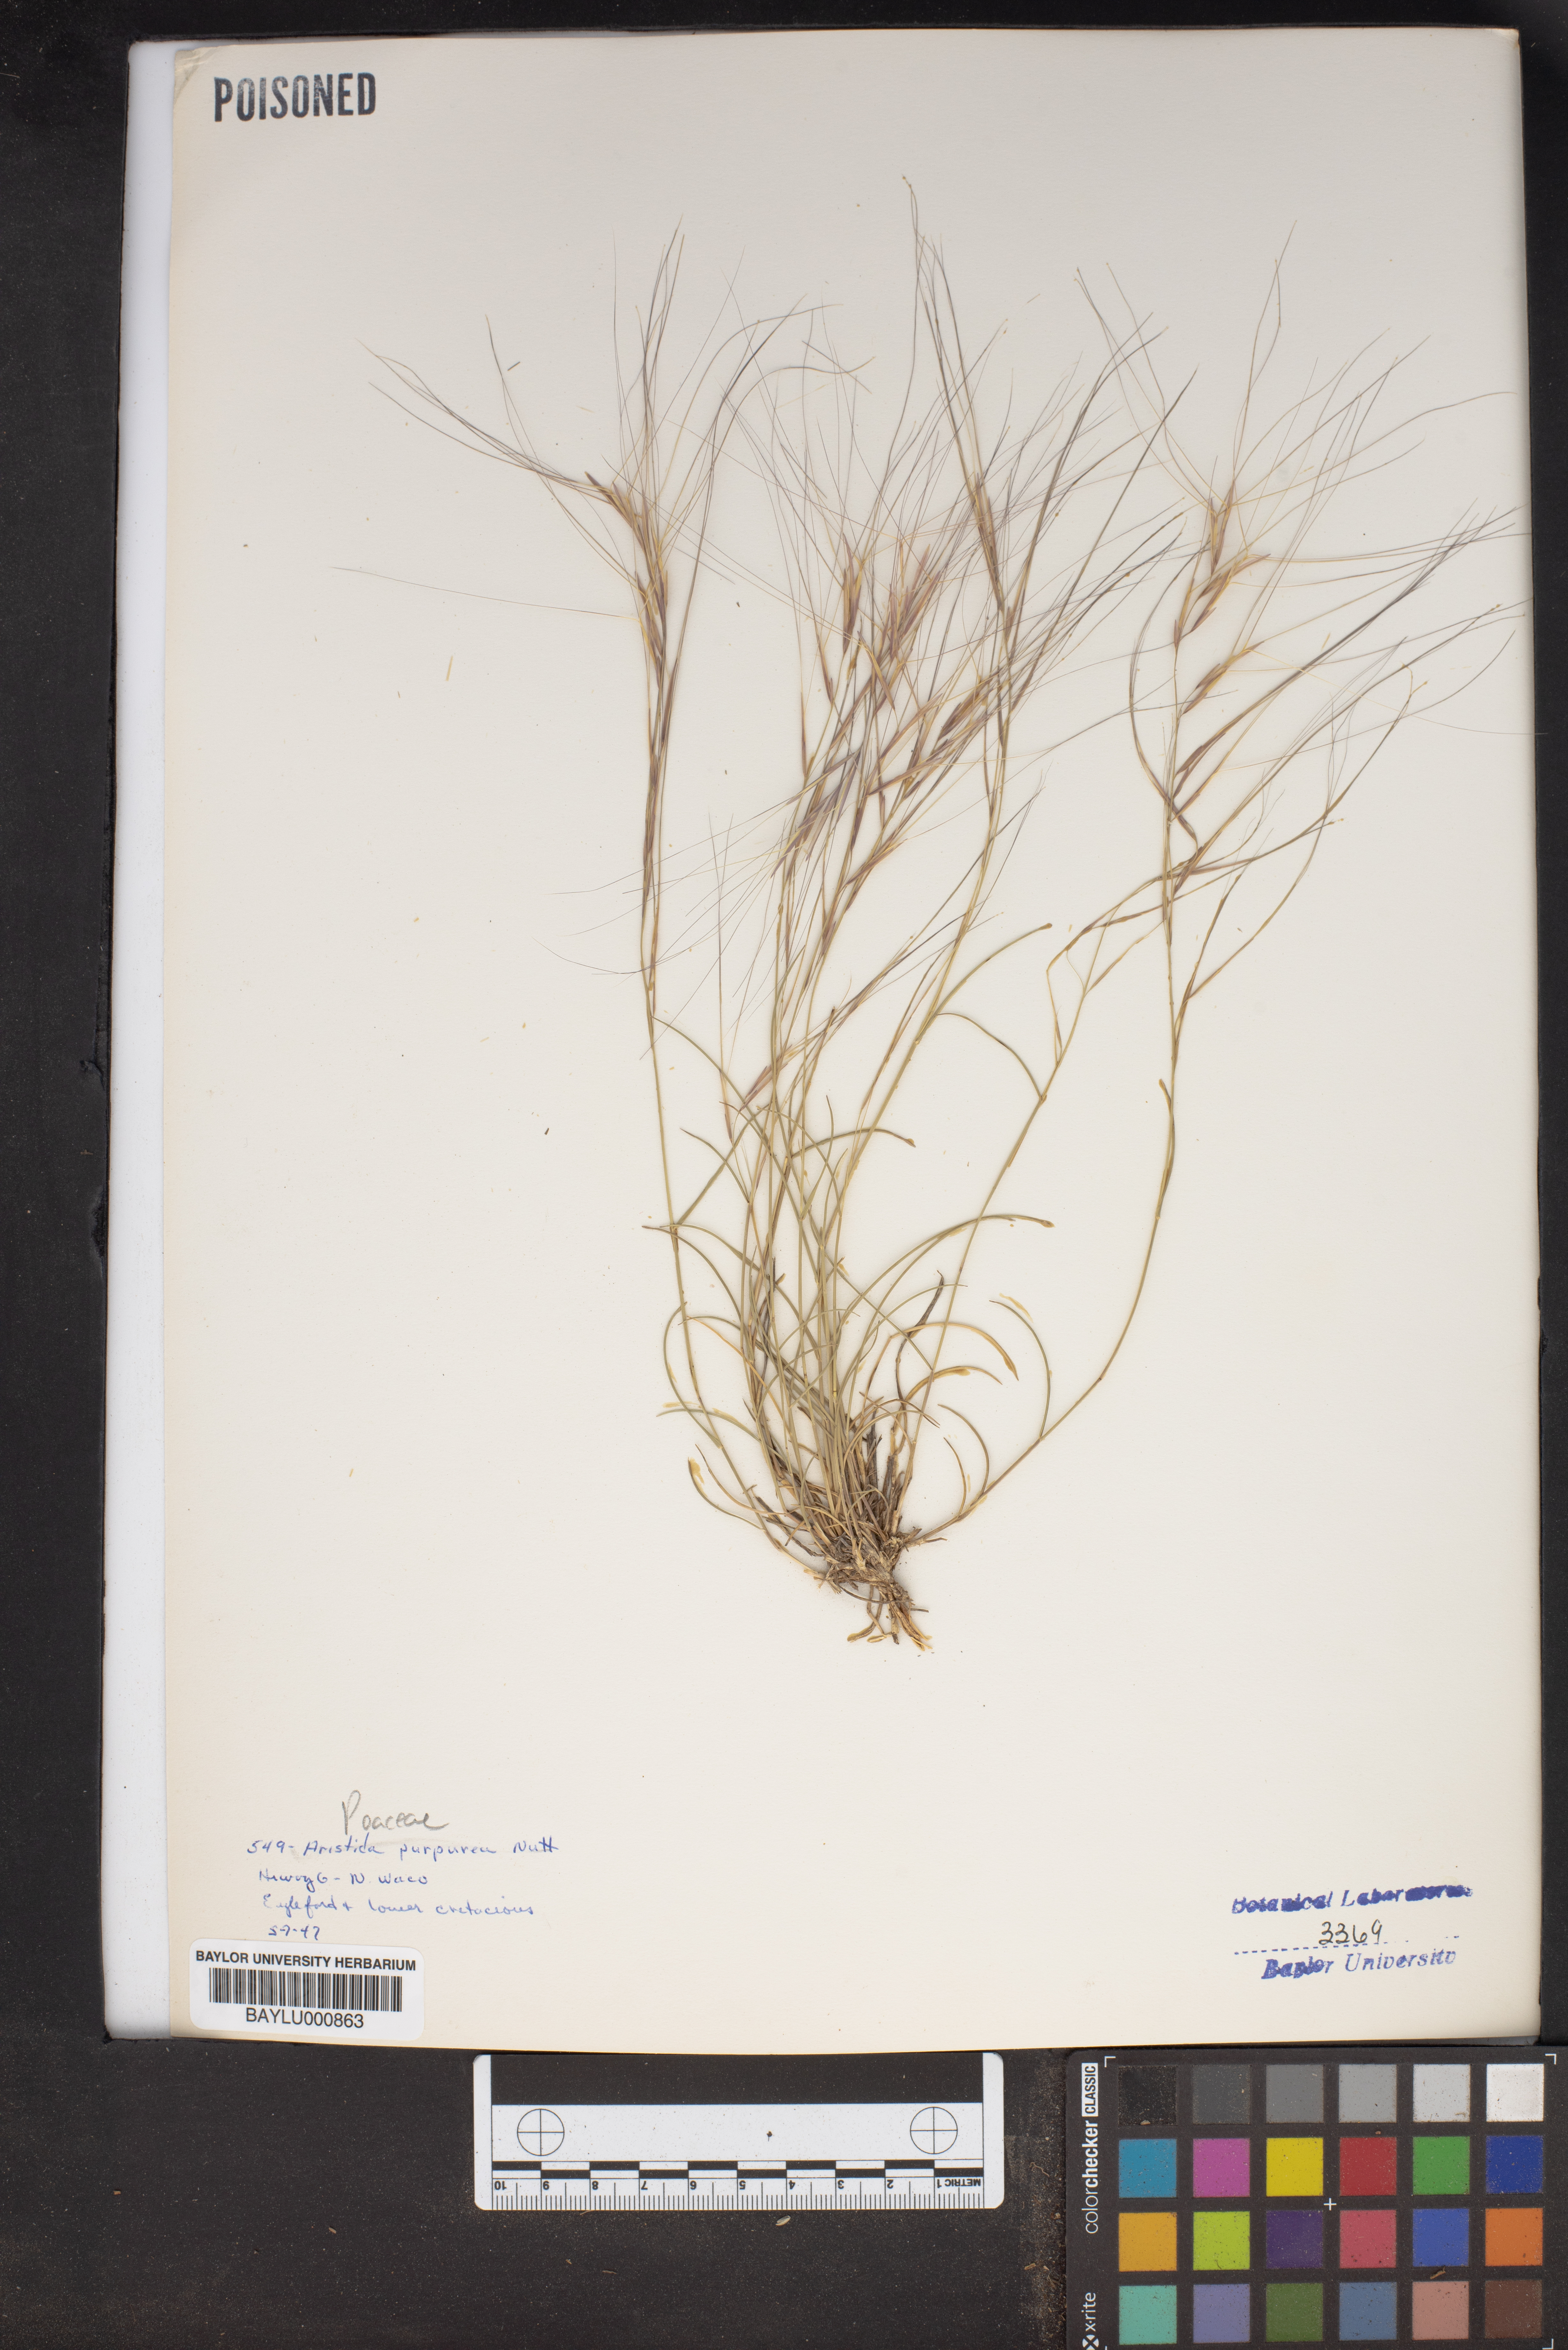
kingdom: Plantae
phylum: Tracheophyta
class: Liliopsida
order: Poales
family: Poaceae
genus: Aristida
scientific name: Aristida purpurea
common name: Purple threeawn
